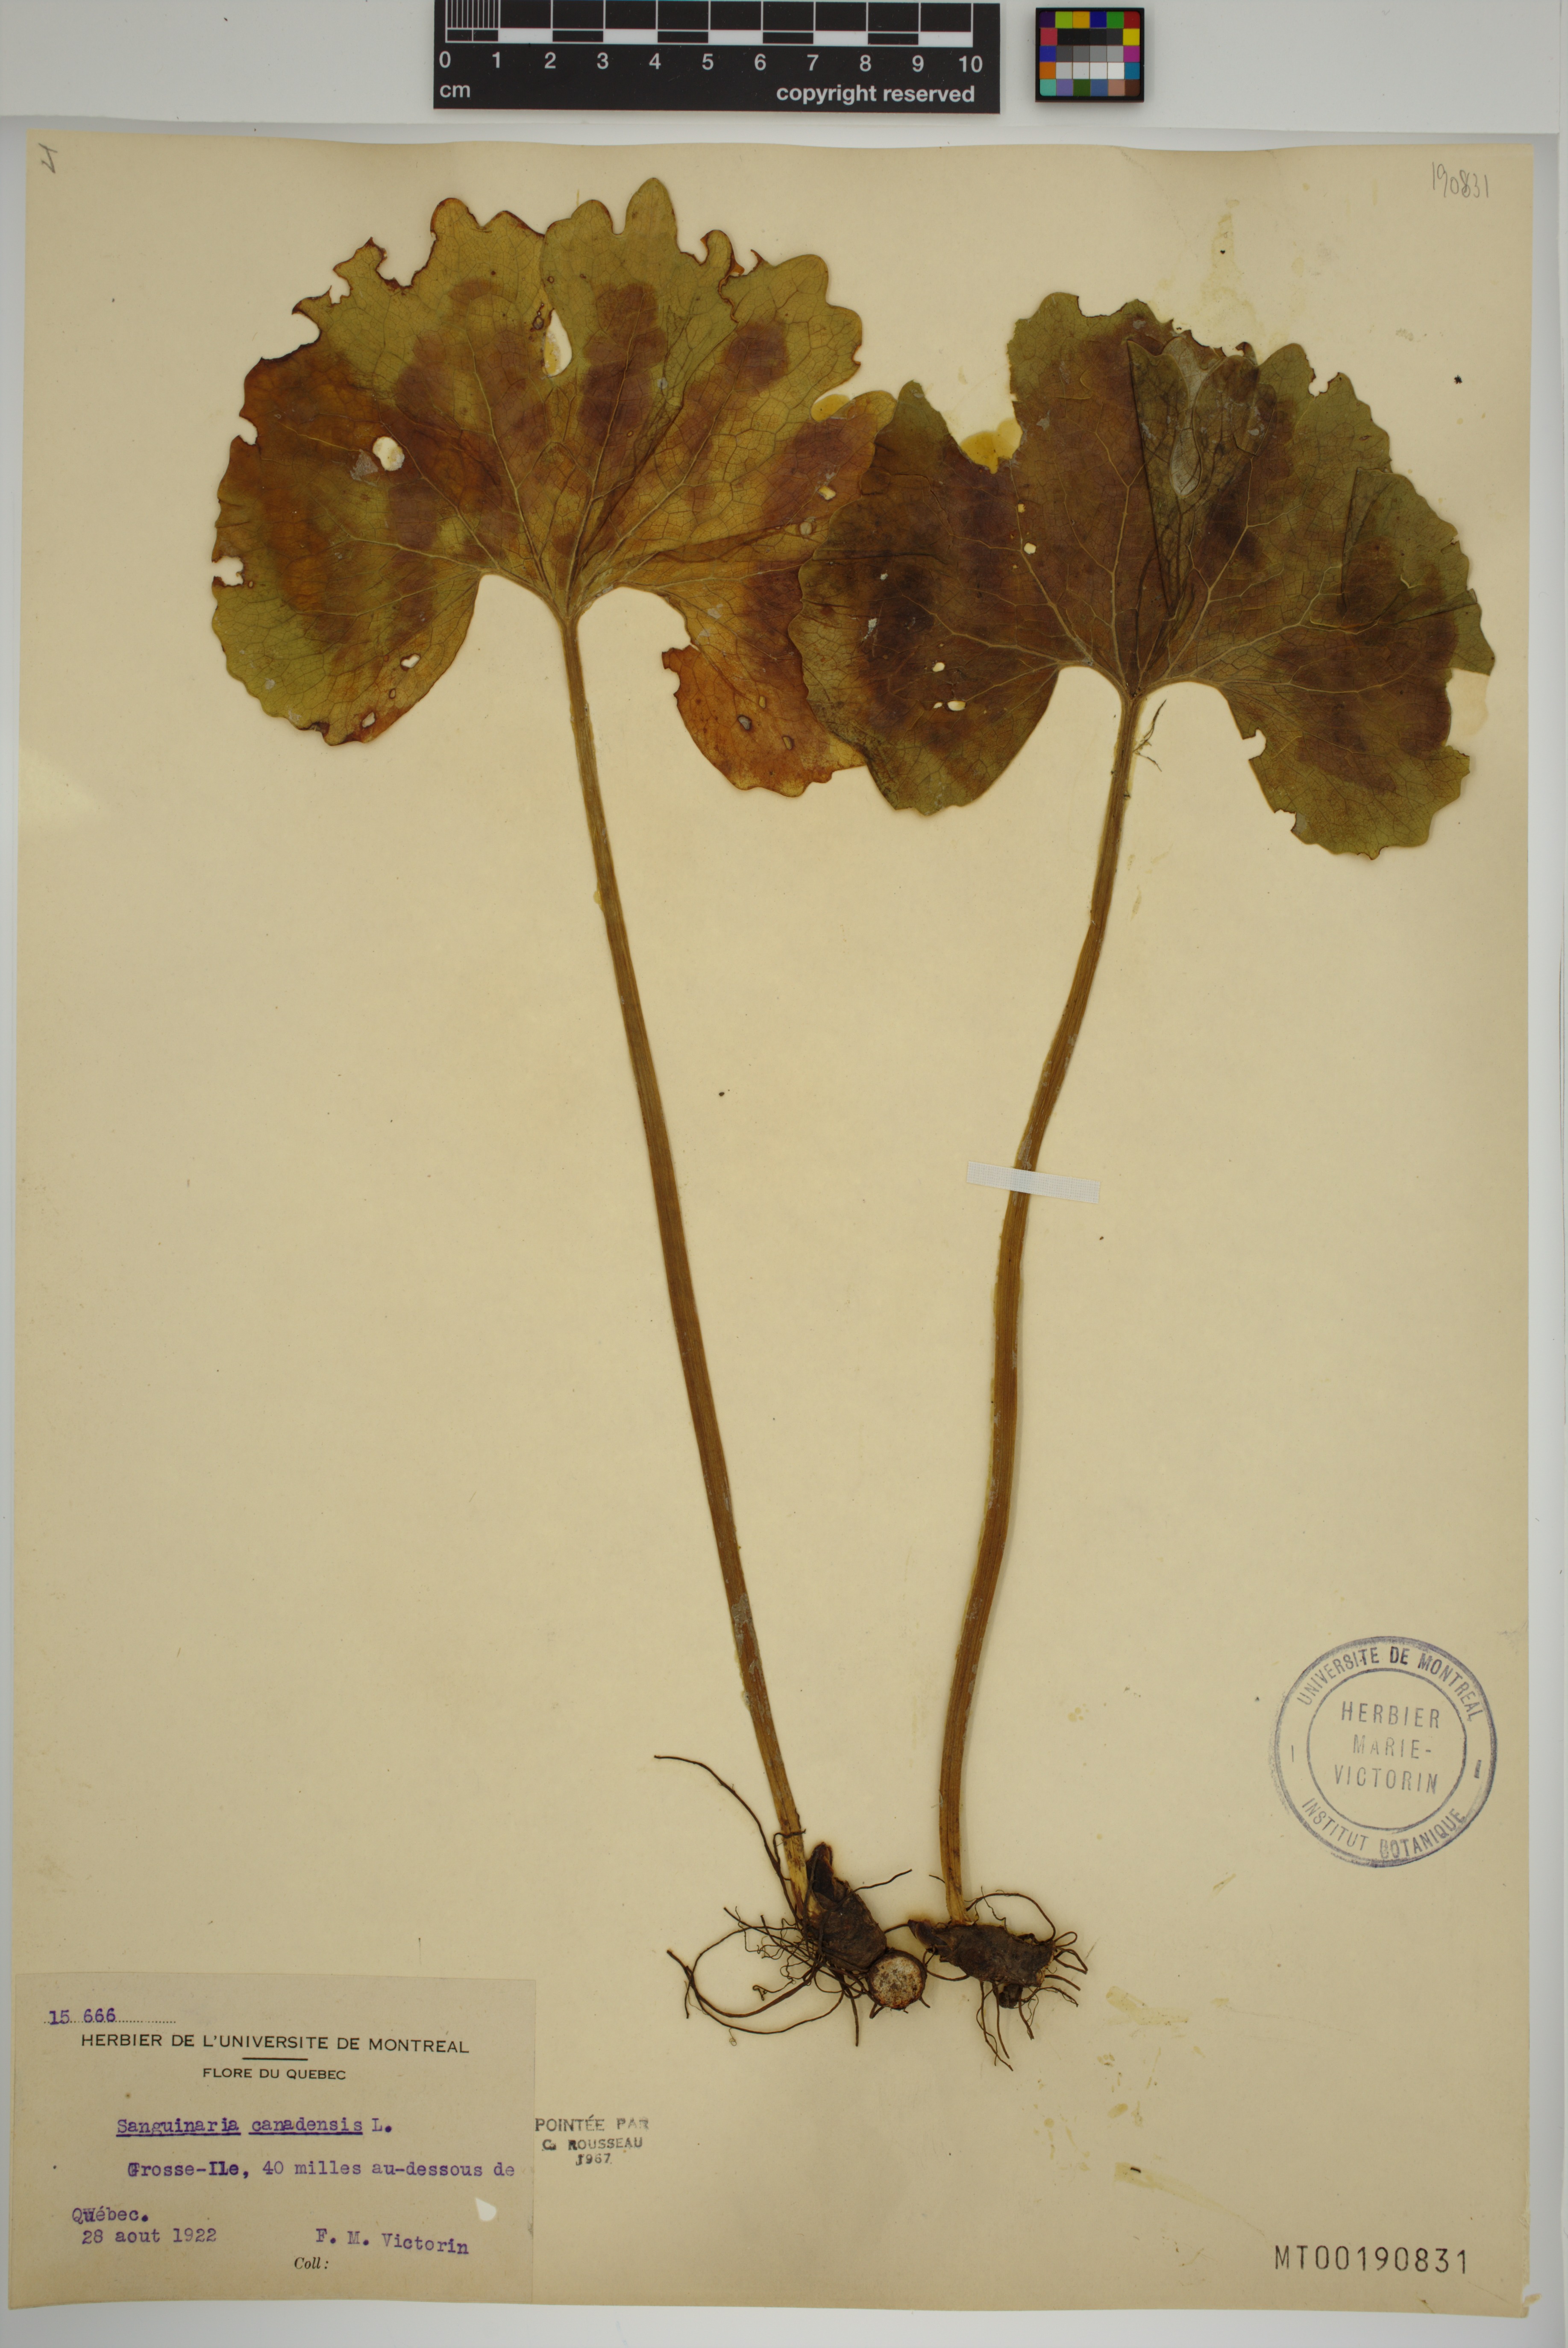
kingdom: Plantae
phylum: Tracheophyta
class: Magnoliopsida
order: Ranunculales
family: Papaveraceae
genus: Sanguinaria
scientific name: Sanguinaria canadensis
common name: Bloodroot
